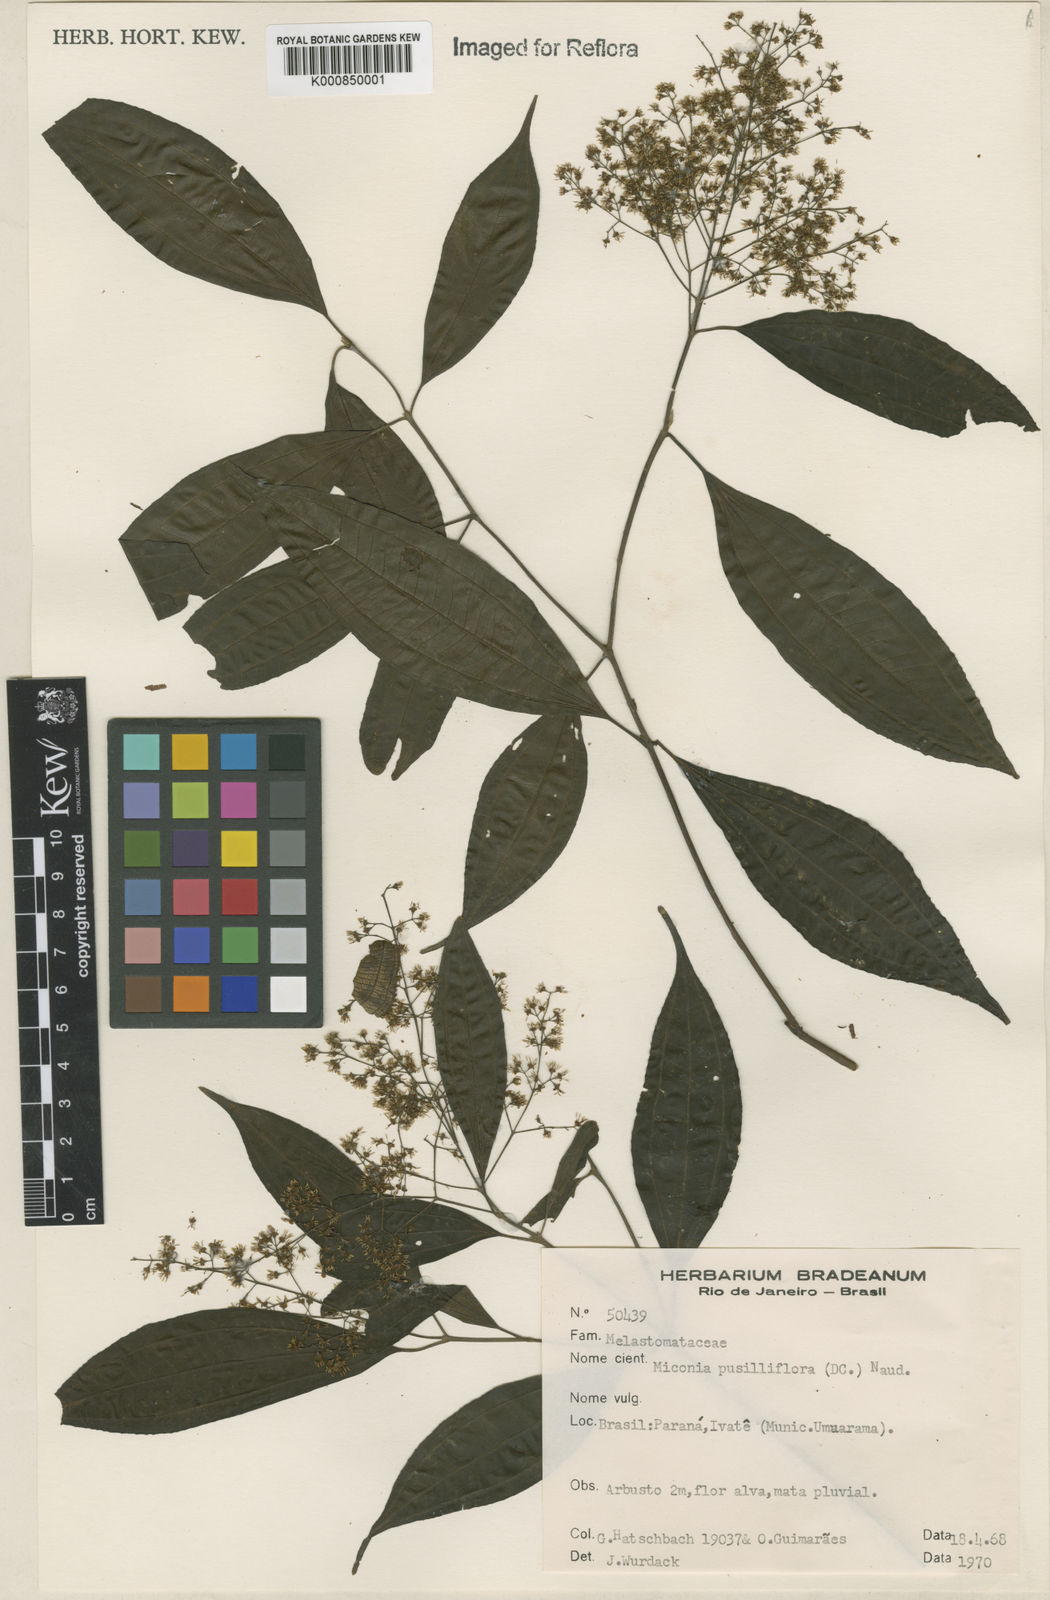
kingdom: Plantae
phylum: Tracheophyta
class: Magnoliopsida
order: Myrtales
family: Melastomataceae
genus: Miconia
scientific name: Miconia pusilliflora
